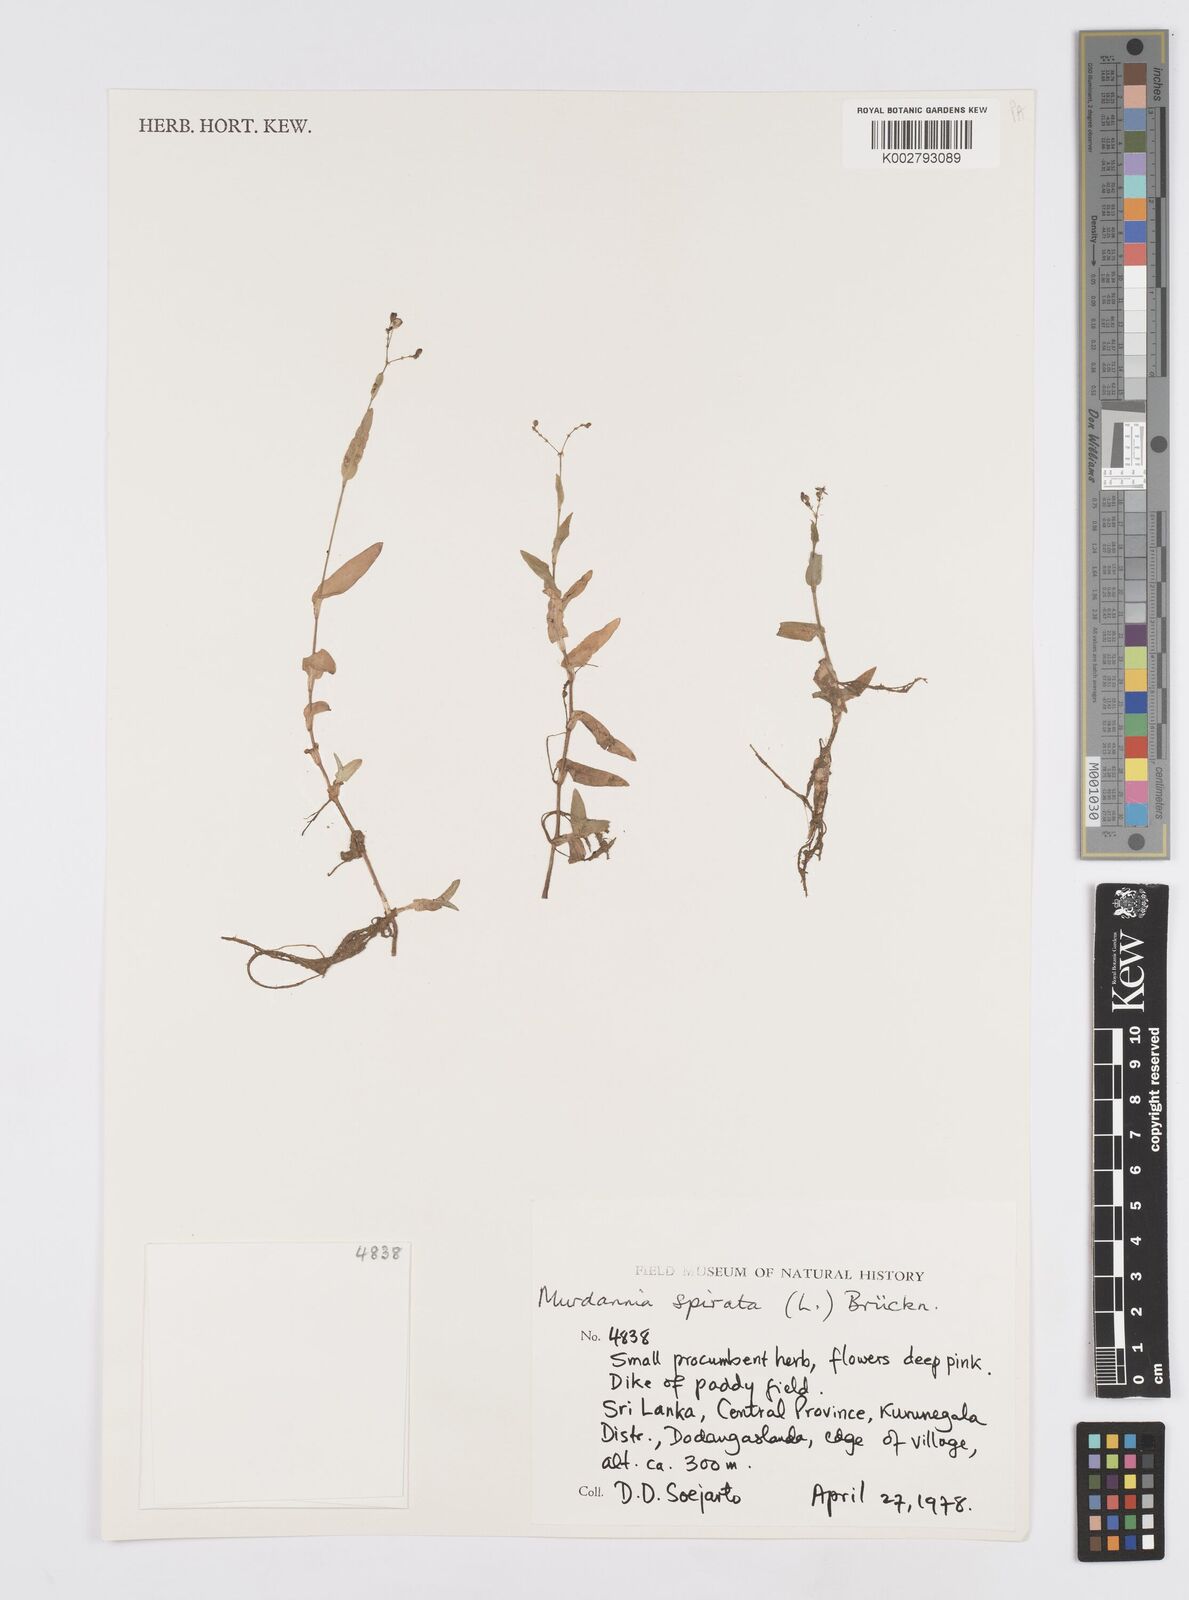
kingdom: Plantae
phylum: Tracheophyta
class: Liliopsida
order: Commelinales
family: Commelinaceae
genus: Murdannia
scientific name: Murdannia spirata
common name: Asiatic dewflower
